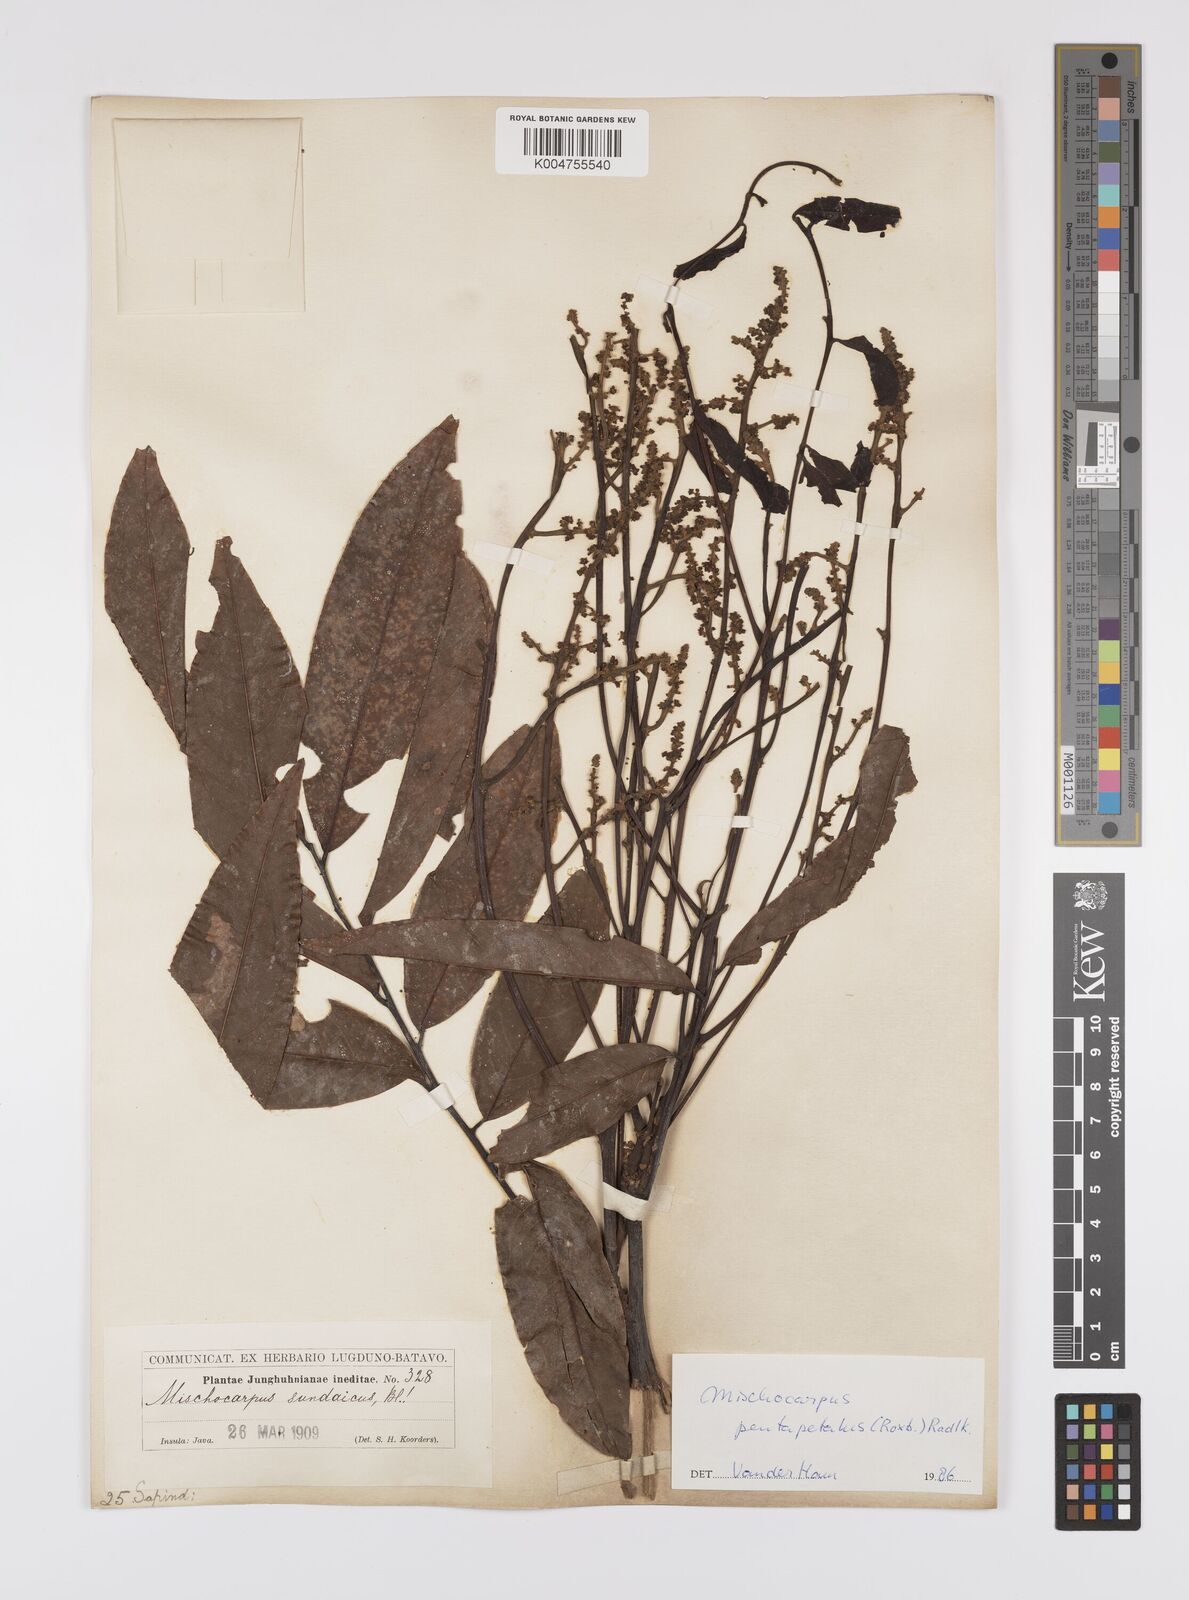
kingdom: Plantae
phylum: Tracheophyta
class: Magnoliopsida
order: Sapindales
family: Sapindaceae
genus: Mischocarpus
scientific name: Mischocarpus pentapetalus
